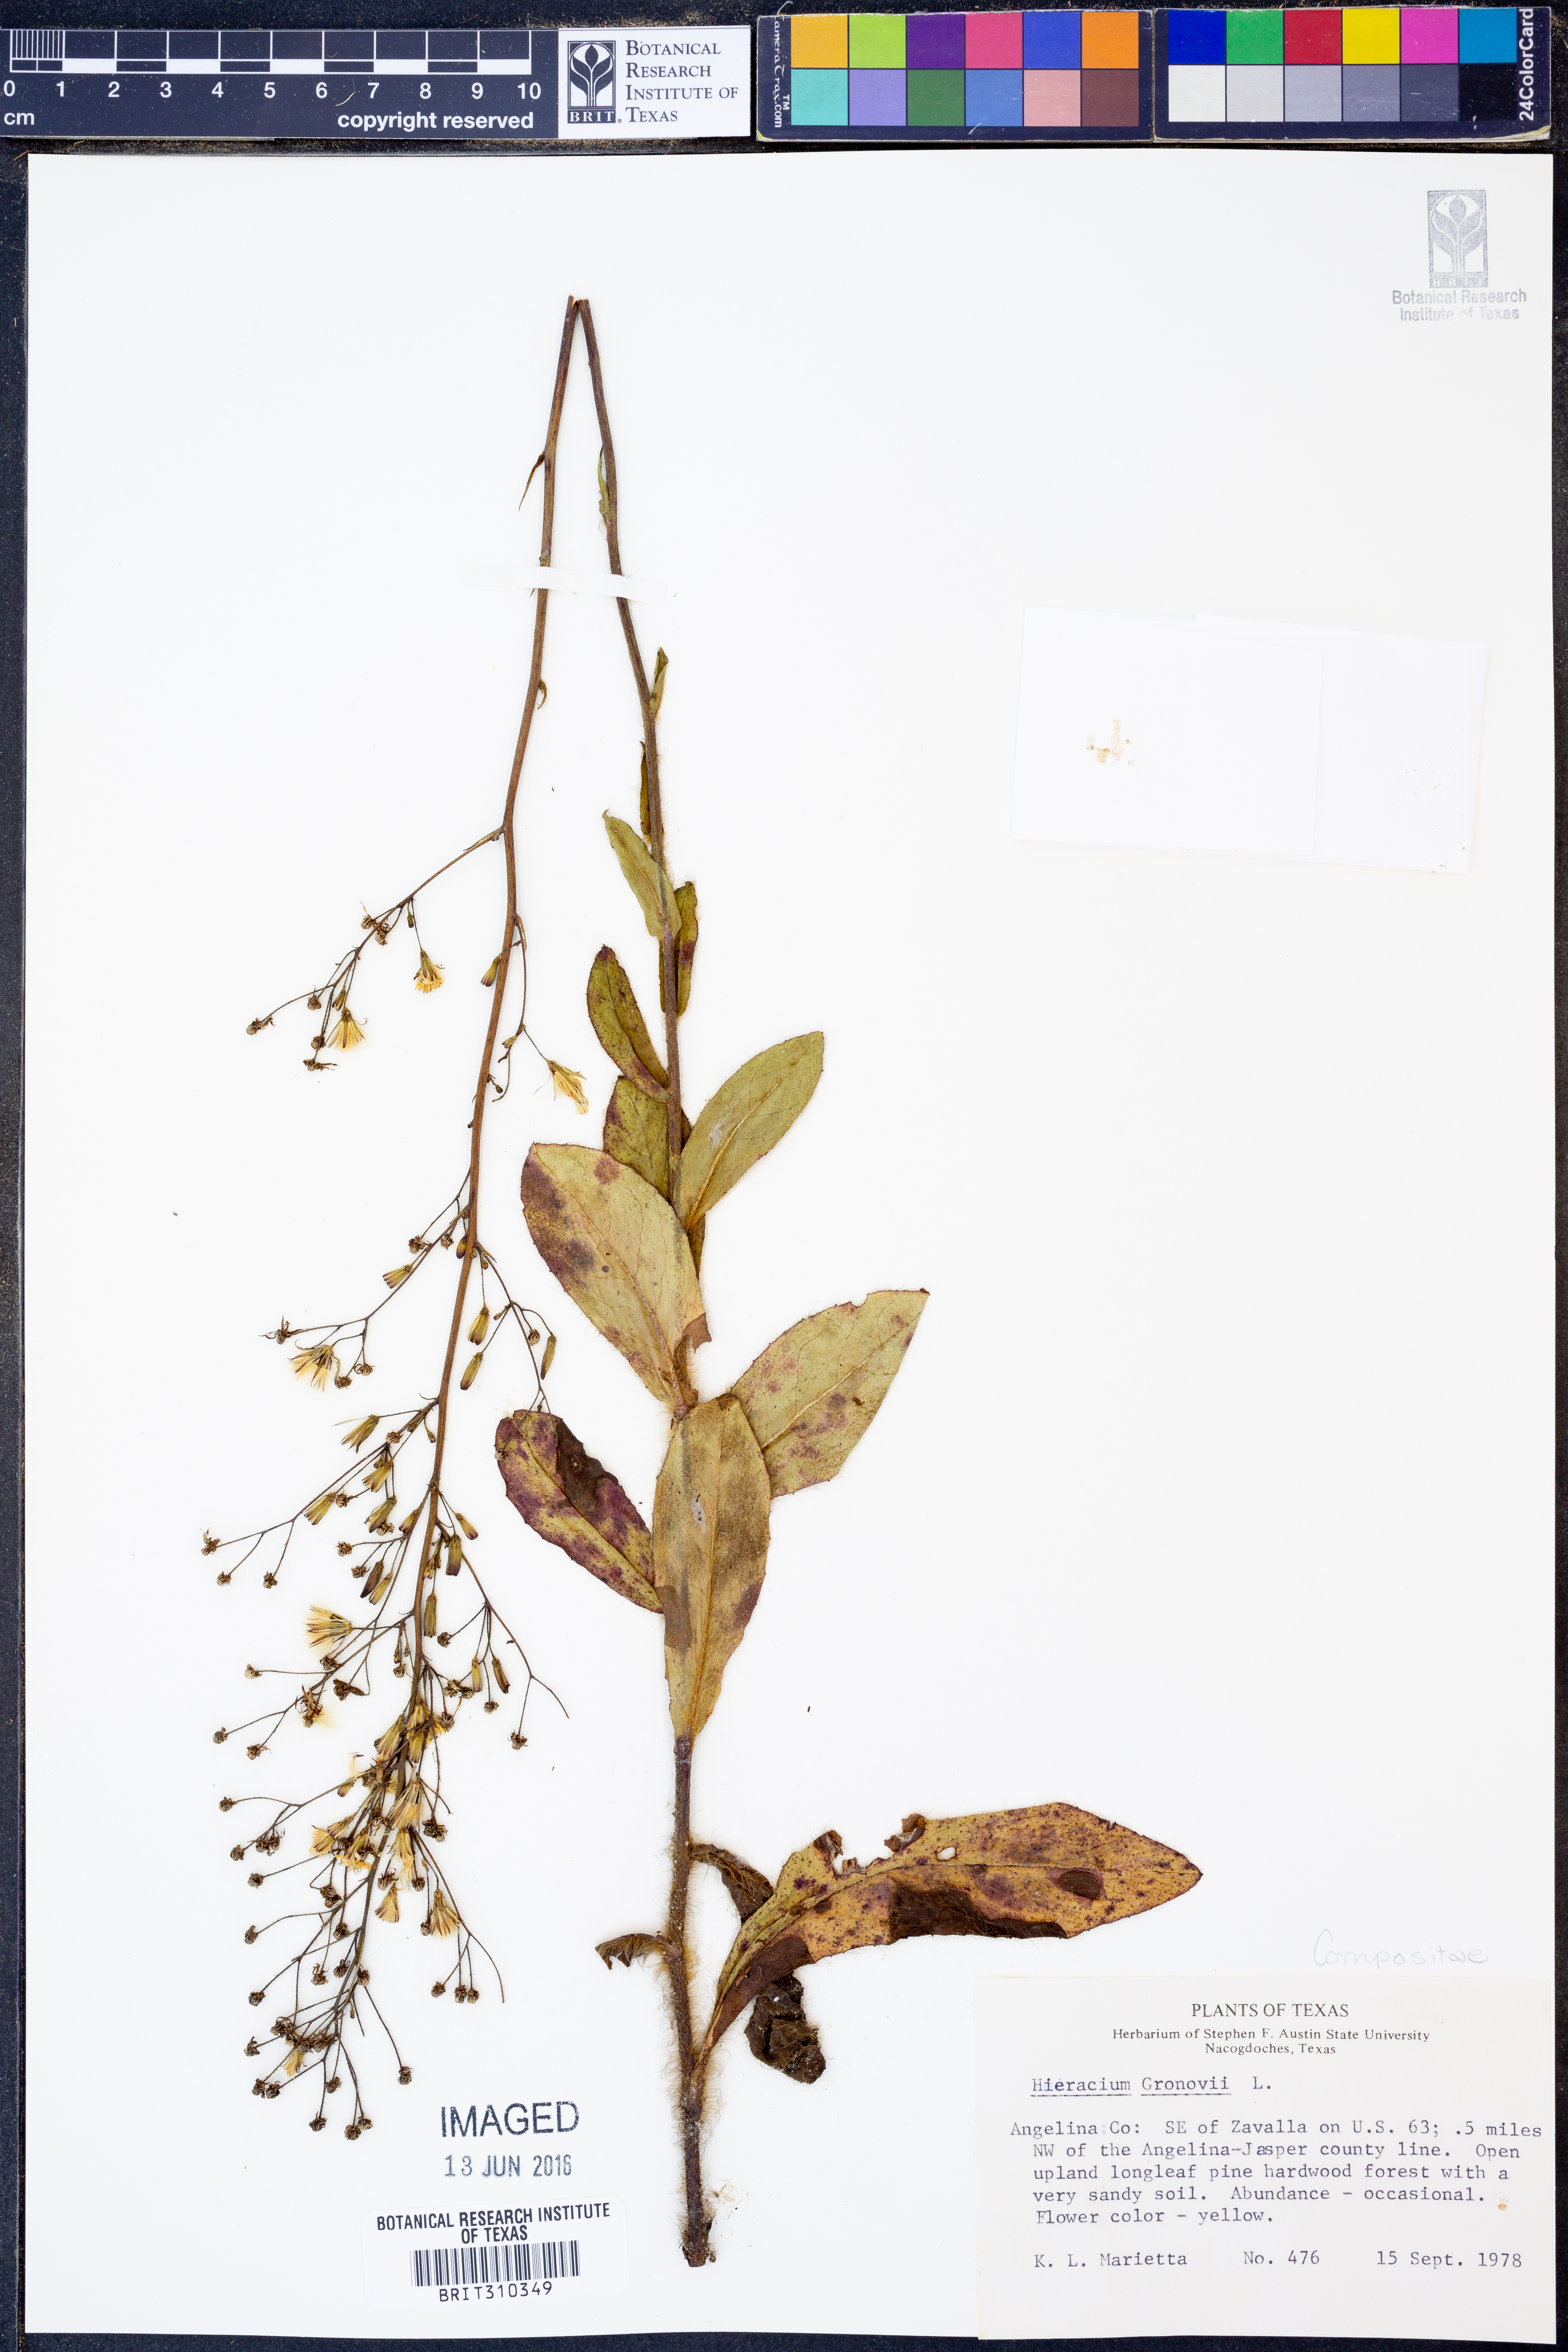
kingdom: Plantae
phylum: Tracheophyta
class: Magnoliopsida
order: Asterales
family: Asteraceae
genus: Hieracium
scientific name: Hieracium gronovii
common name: Beaked hawkweed
